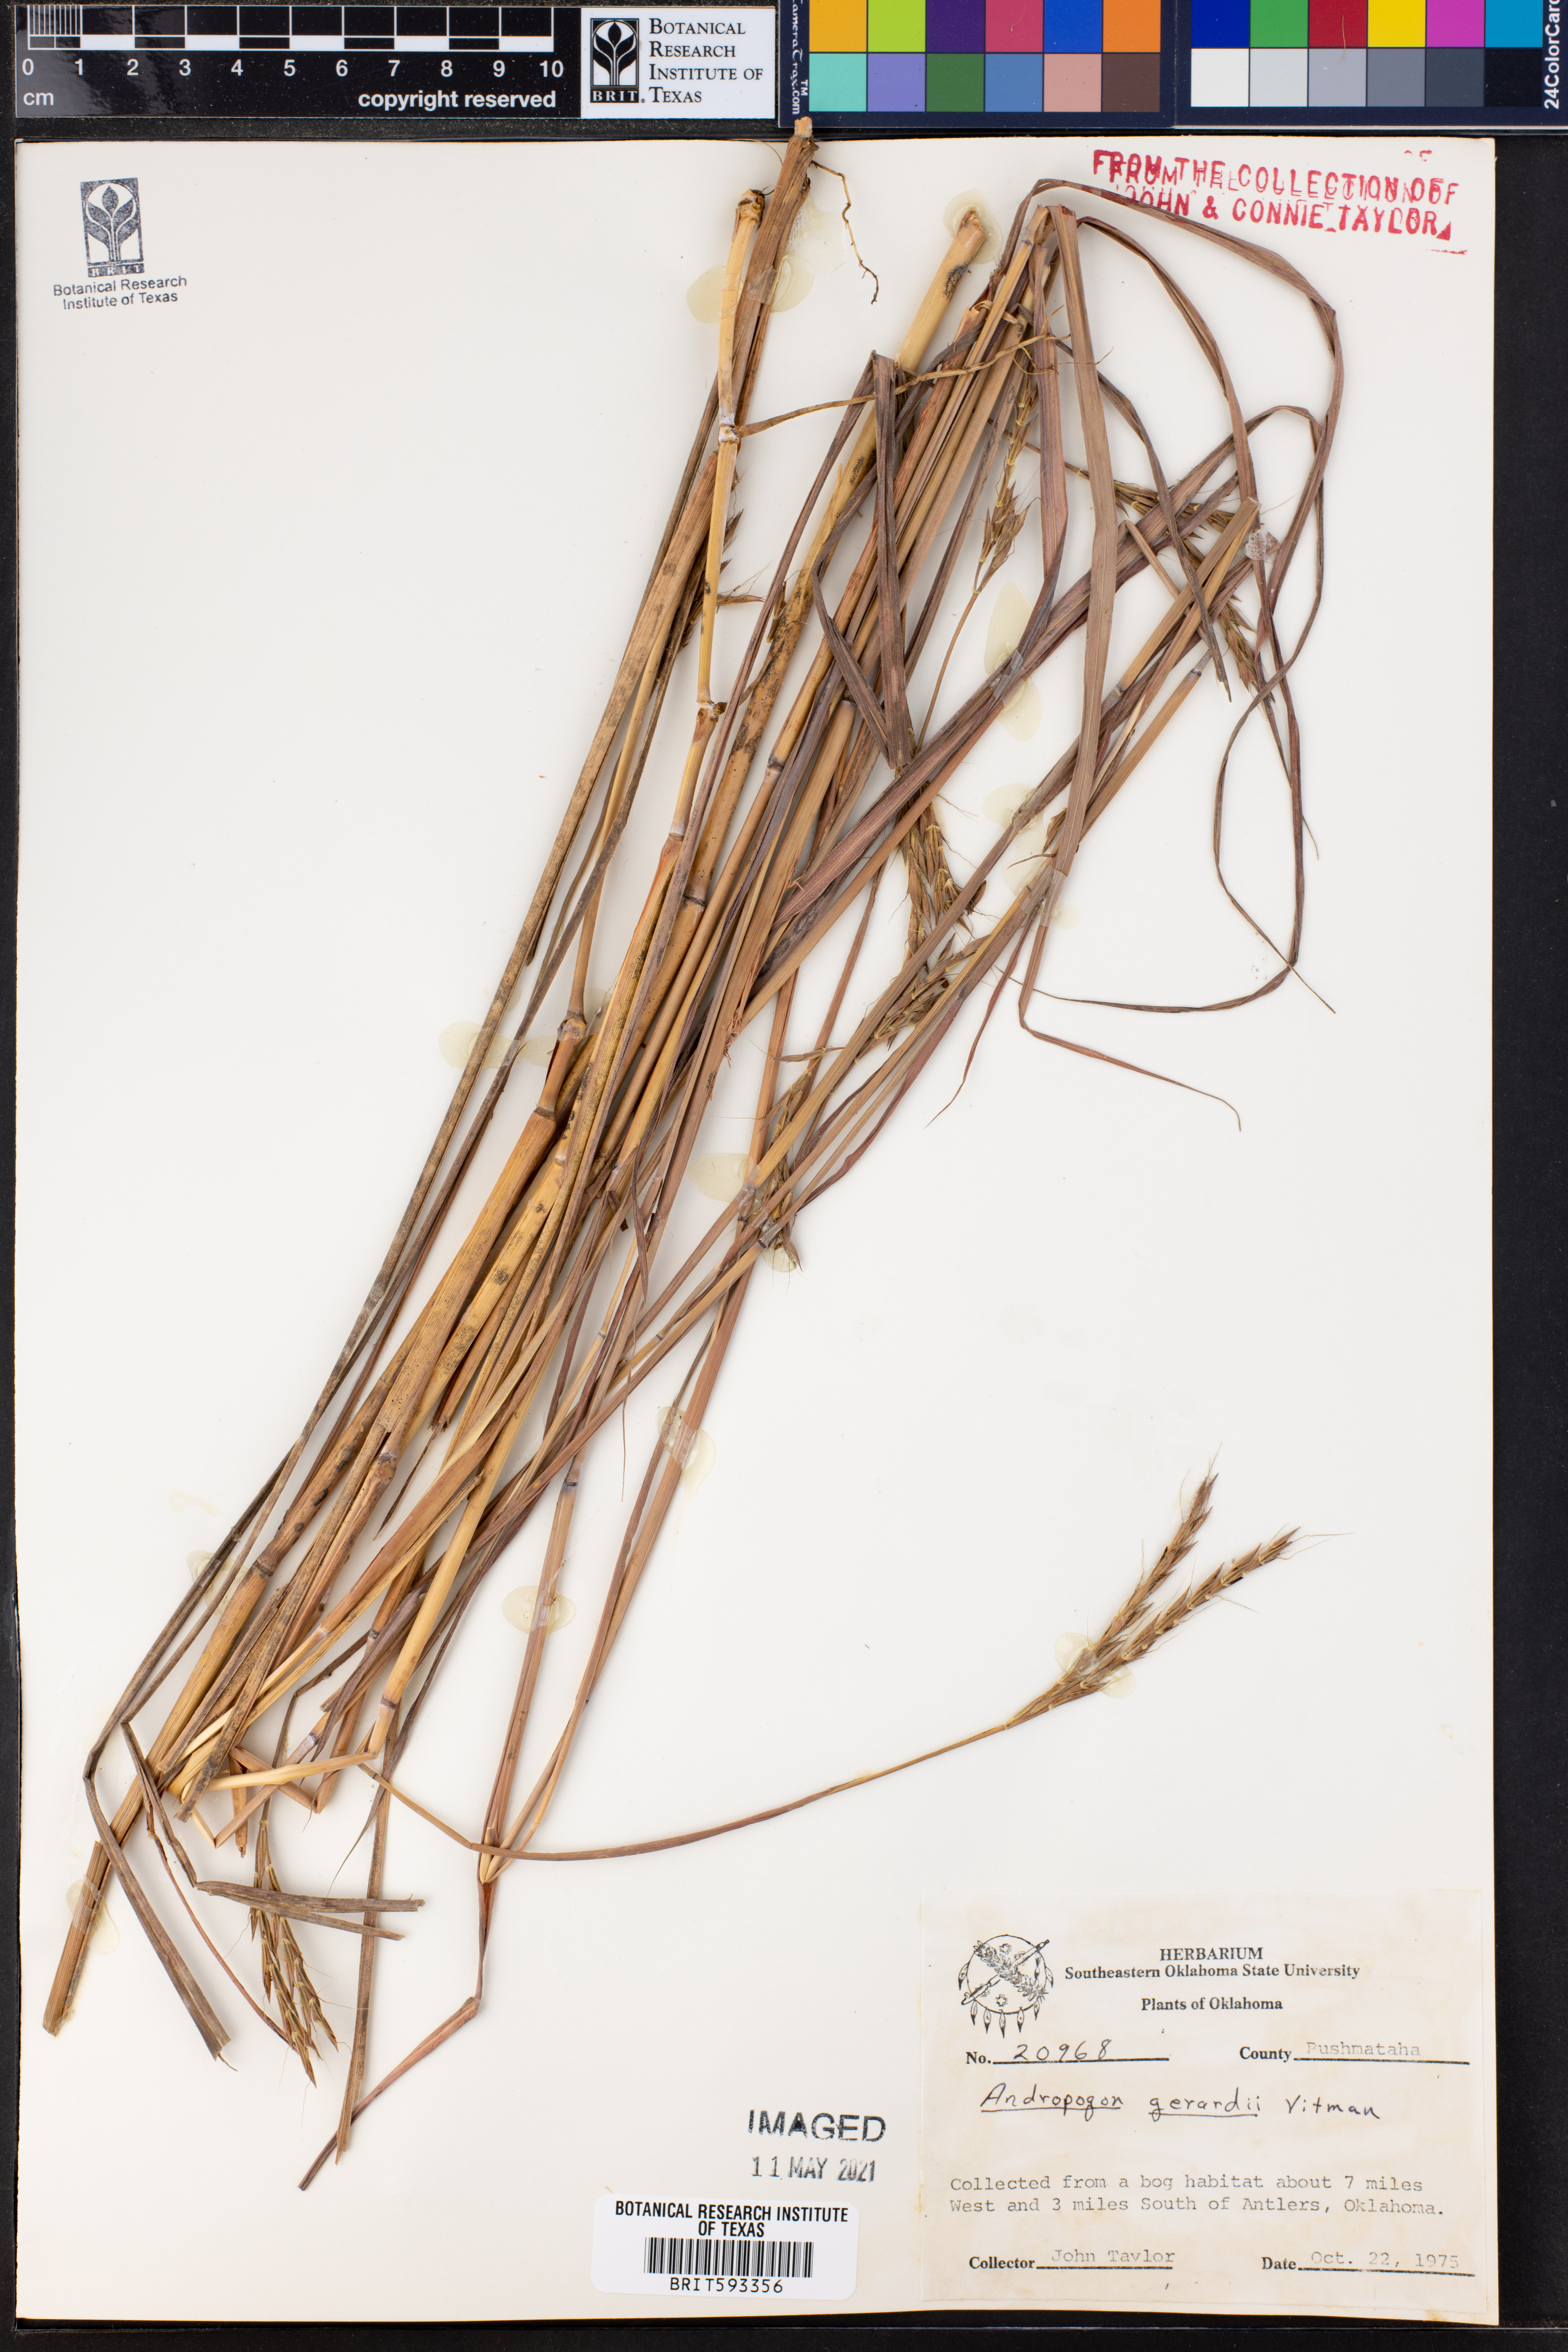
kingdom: Plantae
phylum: Tracheophyta
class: Liliopsida
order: Poales
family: Poaceae
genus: Andropogon
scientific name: Andropogon gerardi
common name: Big bluestem
